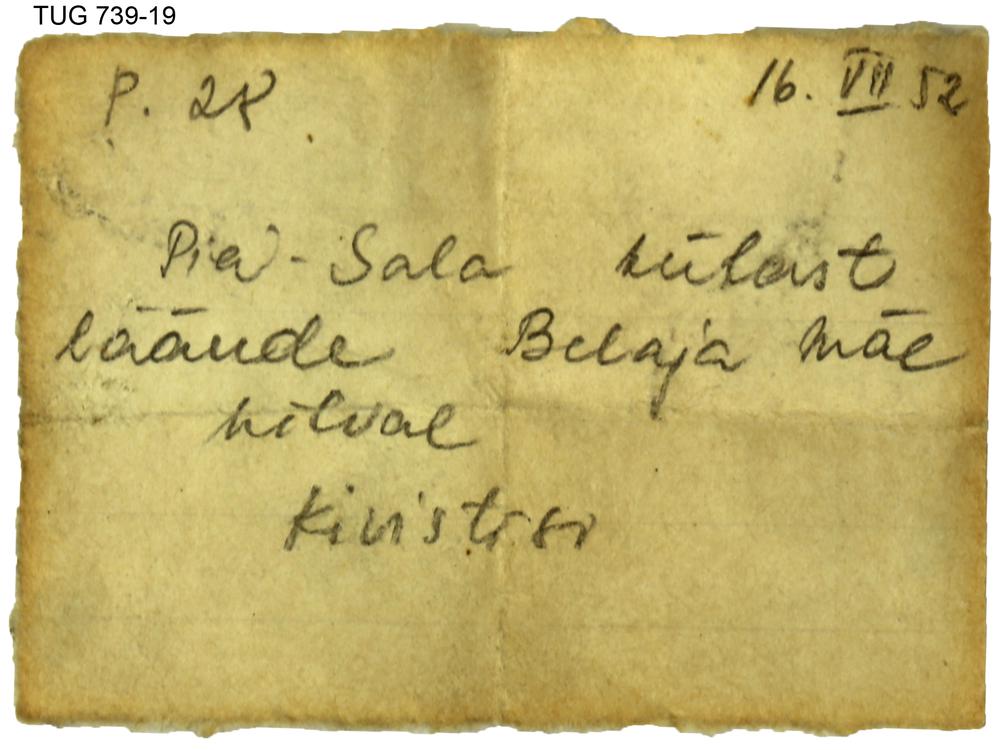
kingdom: Animalia
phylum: Mollusca
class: Cephalopoda
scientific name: Cephalopoda
